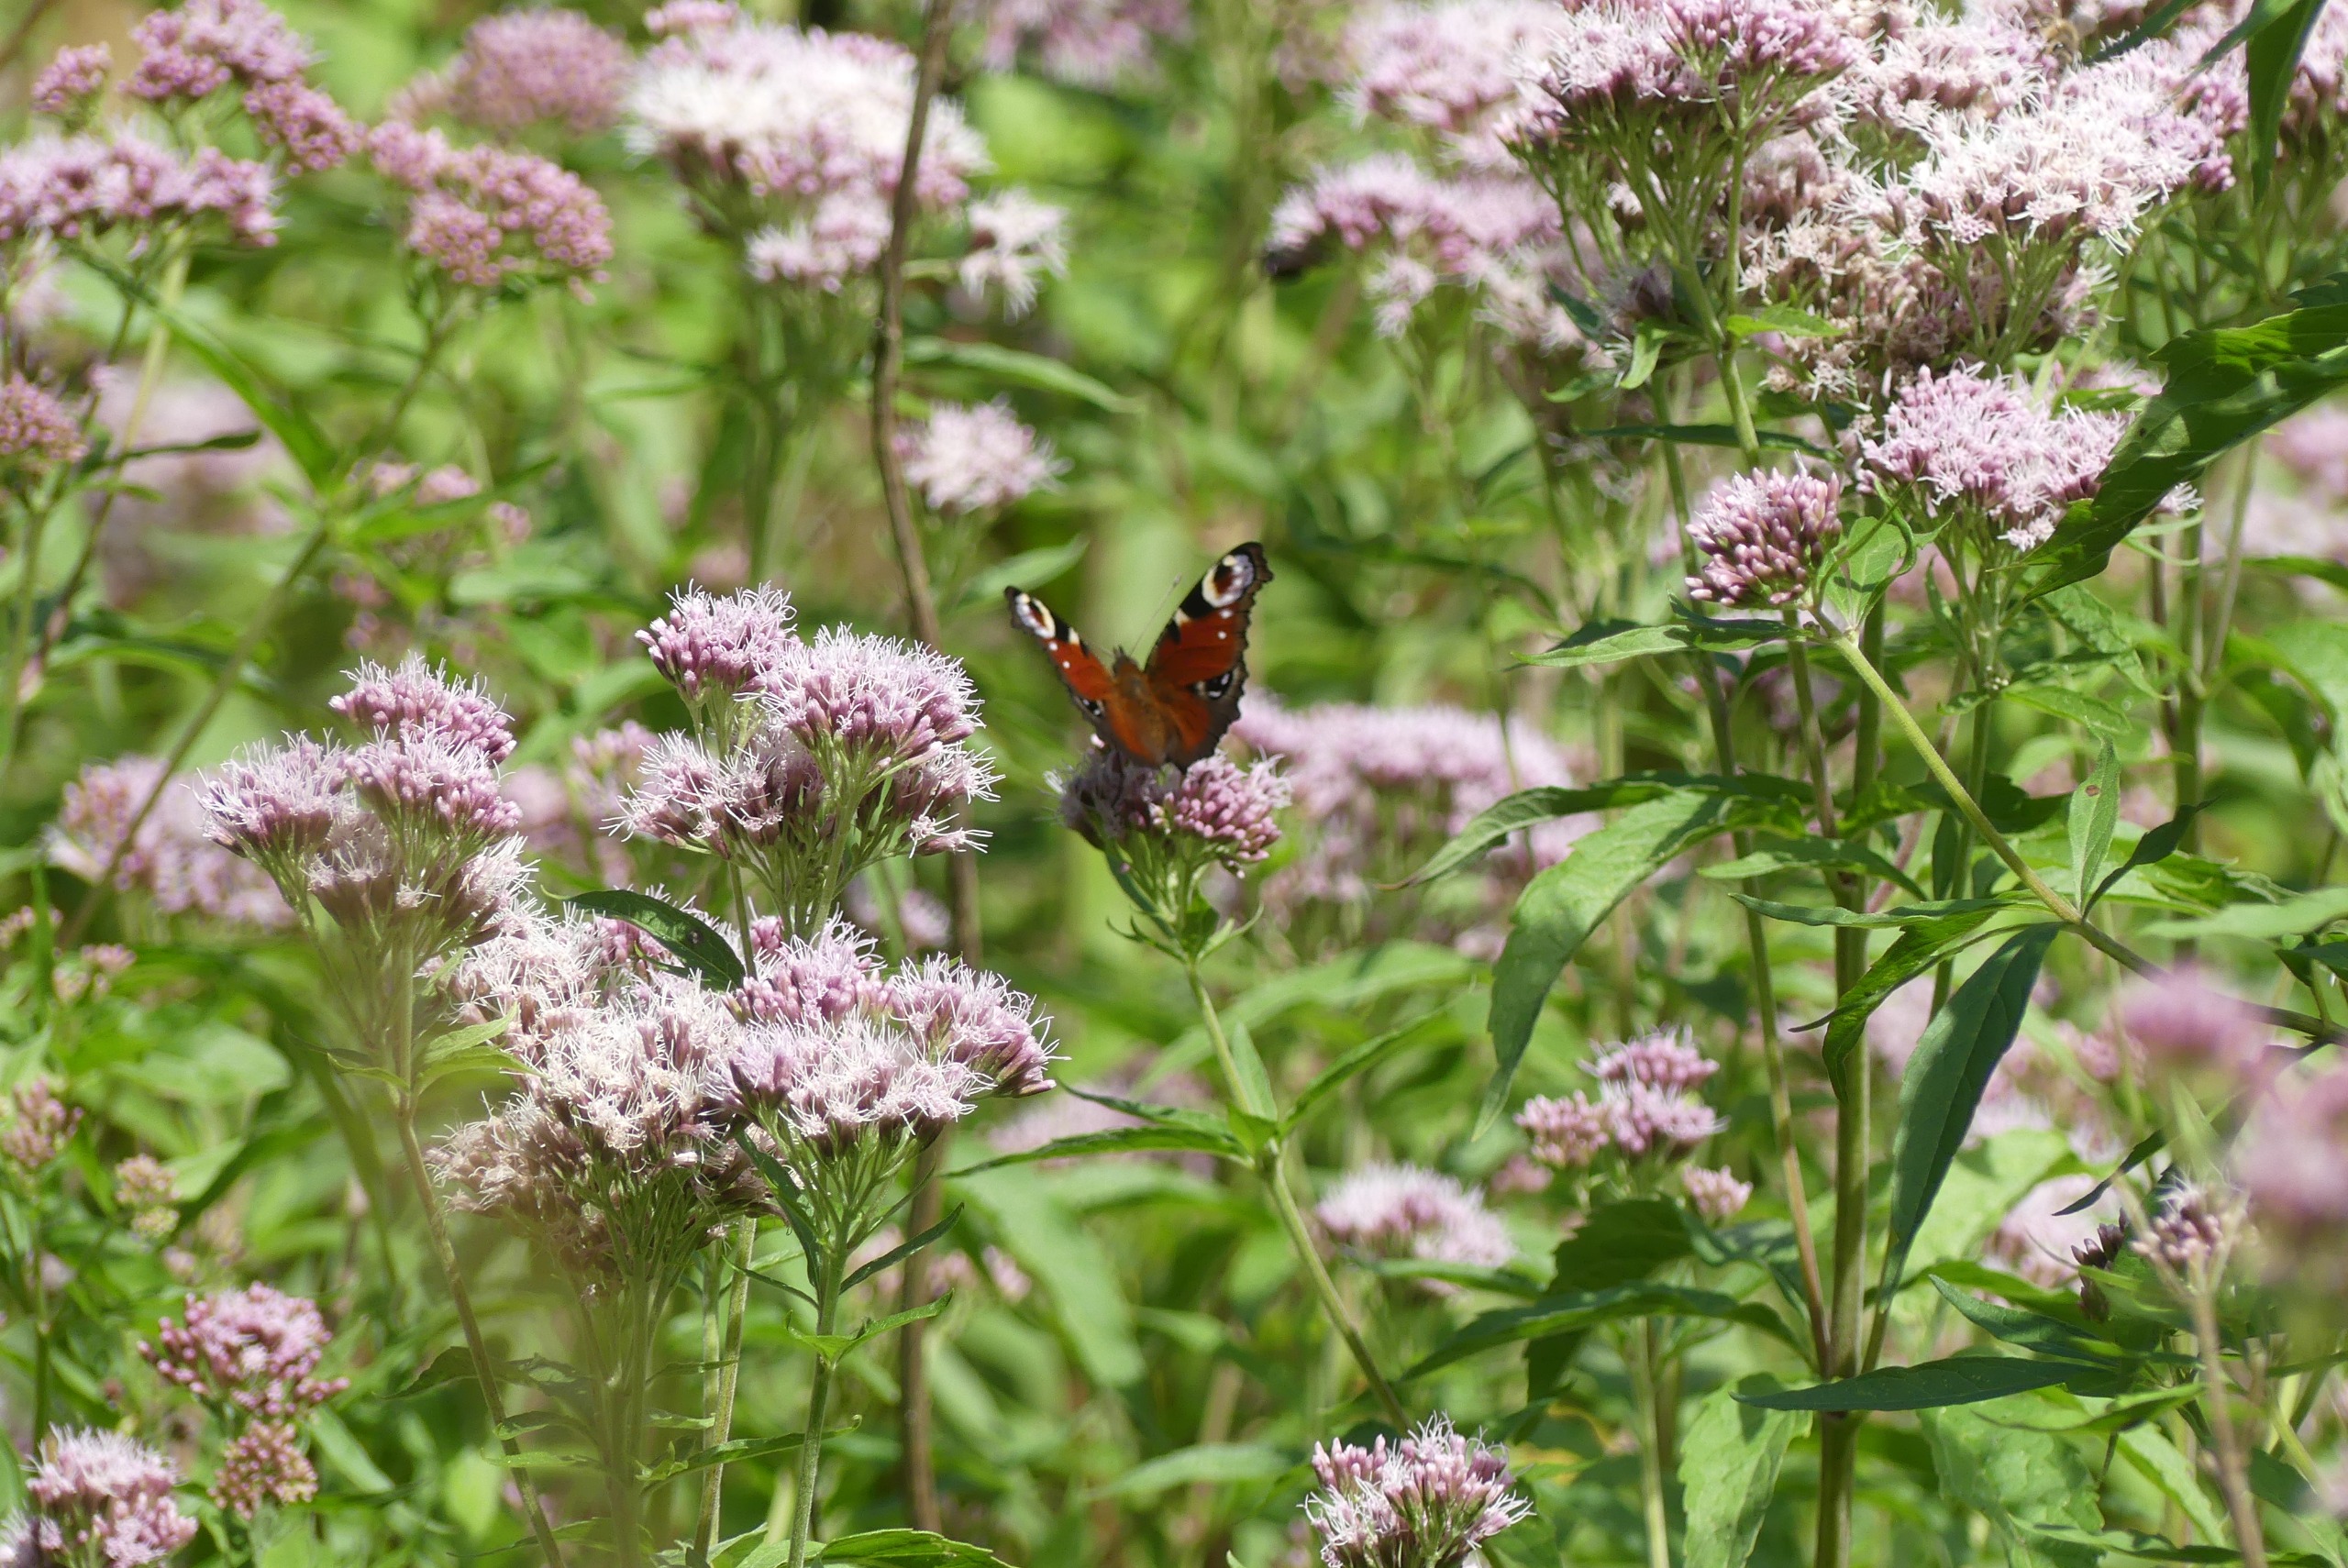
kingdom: Animalia
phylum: Arthropoda
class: Insecta
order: Lepidoptera
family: Nymphalidae
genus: Aglais
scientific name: Aglais io
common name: Dagpåfugleøje
